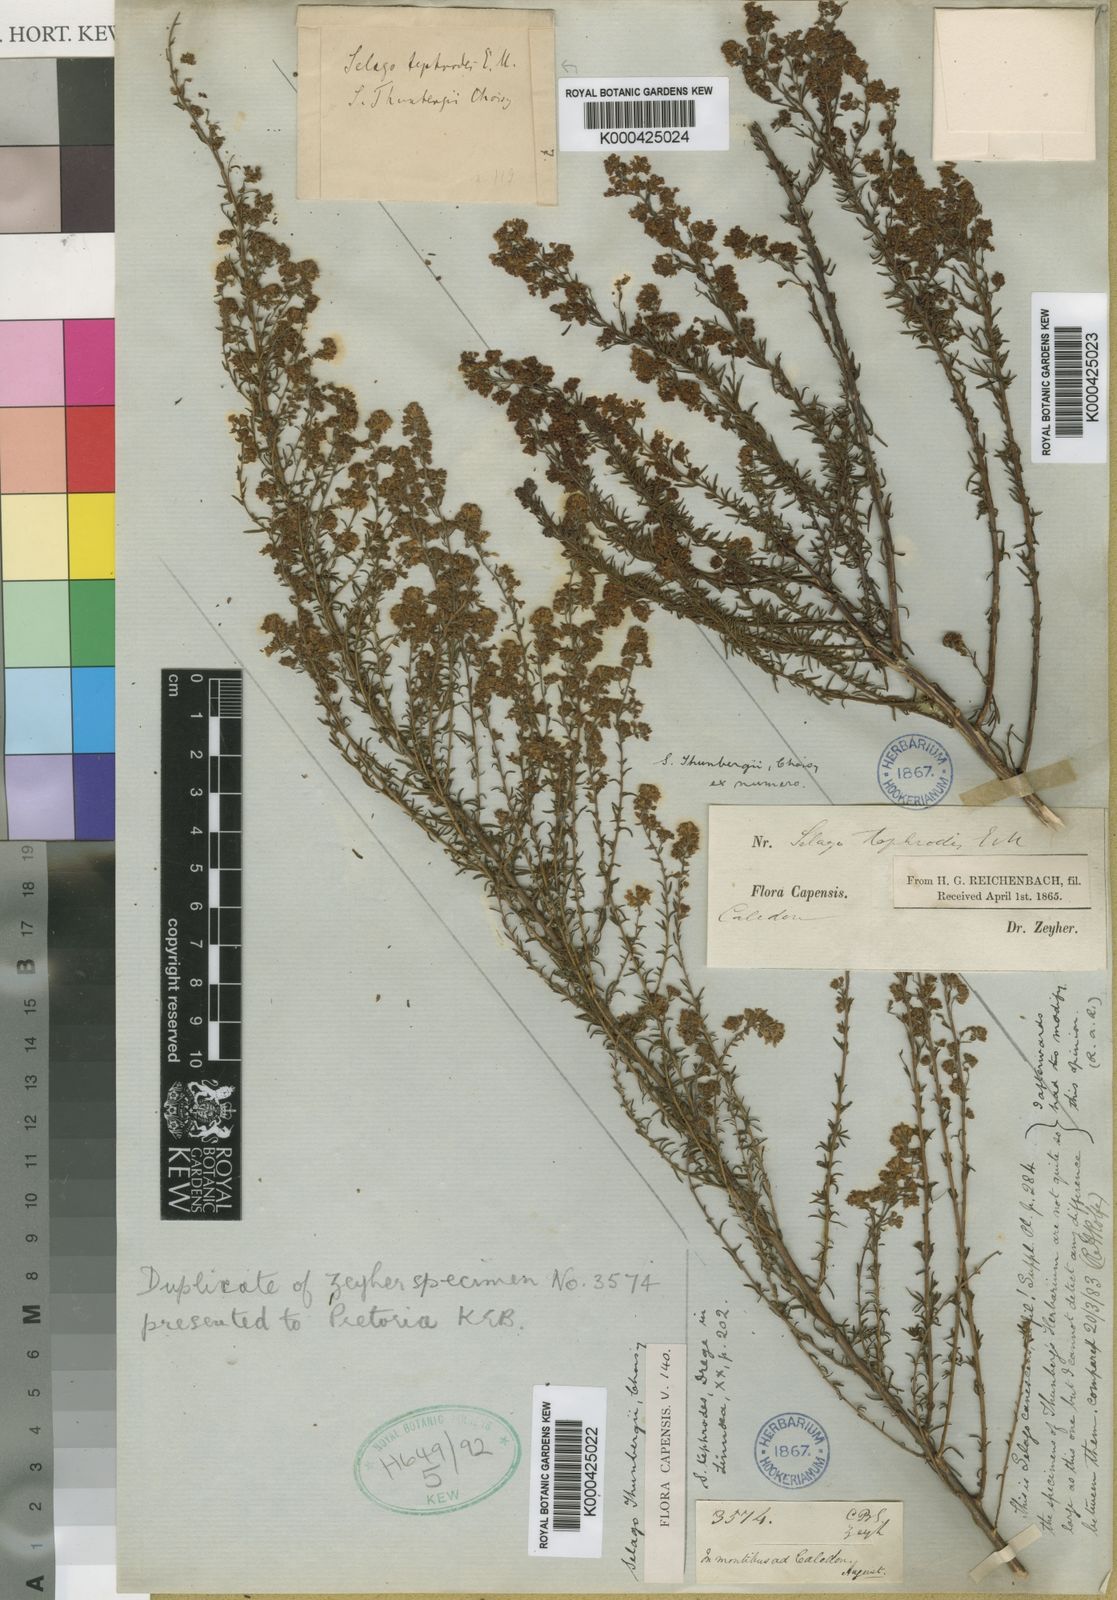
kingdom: Plantae
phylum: Tracheophyta
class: Magnoliopsida
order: Lamiales
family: Scrophulariaceae
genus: Selago
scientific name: Selago canescens
